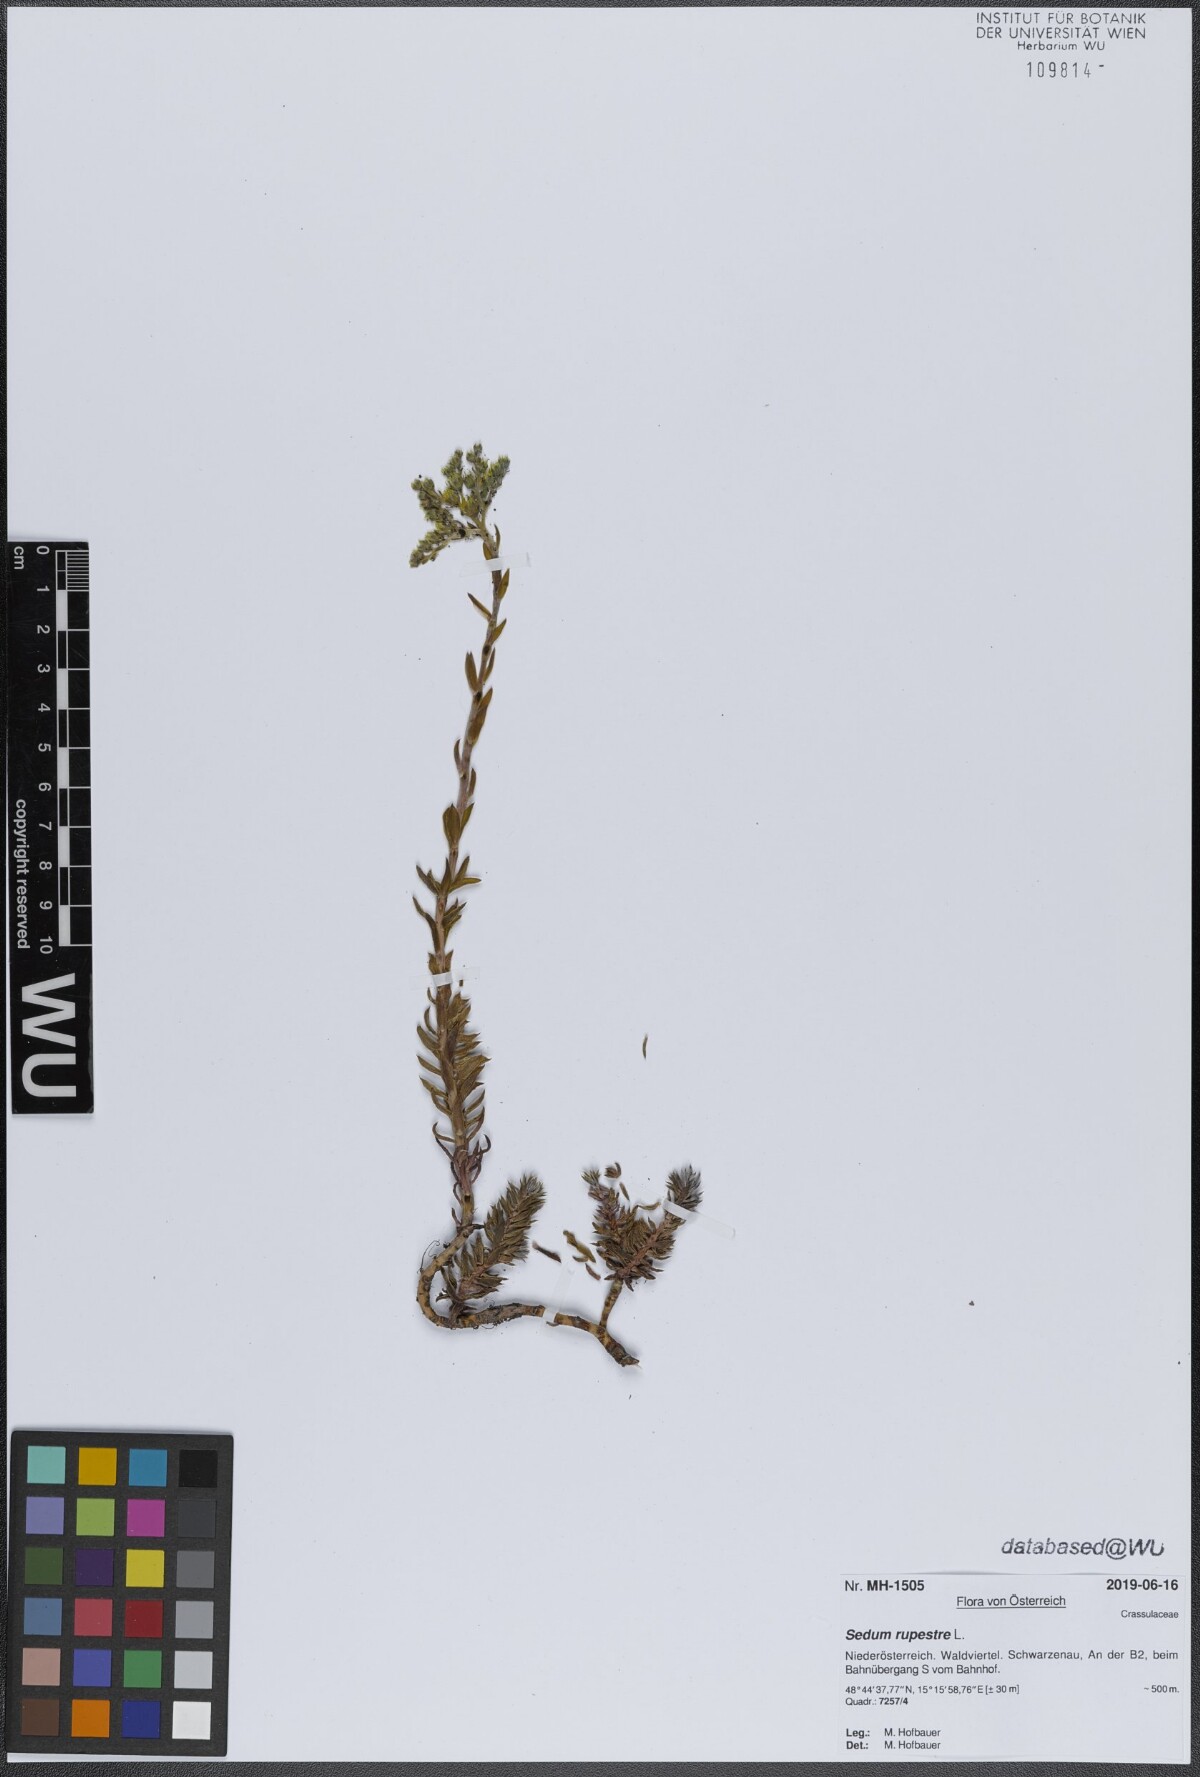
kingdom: Plantae
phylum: Tracheophyta
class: Magnoliopsida
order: Saxifragales
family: Crassulaceae
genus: Petrosedum
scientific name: Petrosedum rupestre
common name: Jenny's stonecrop
